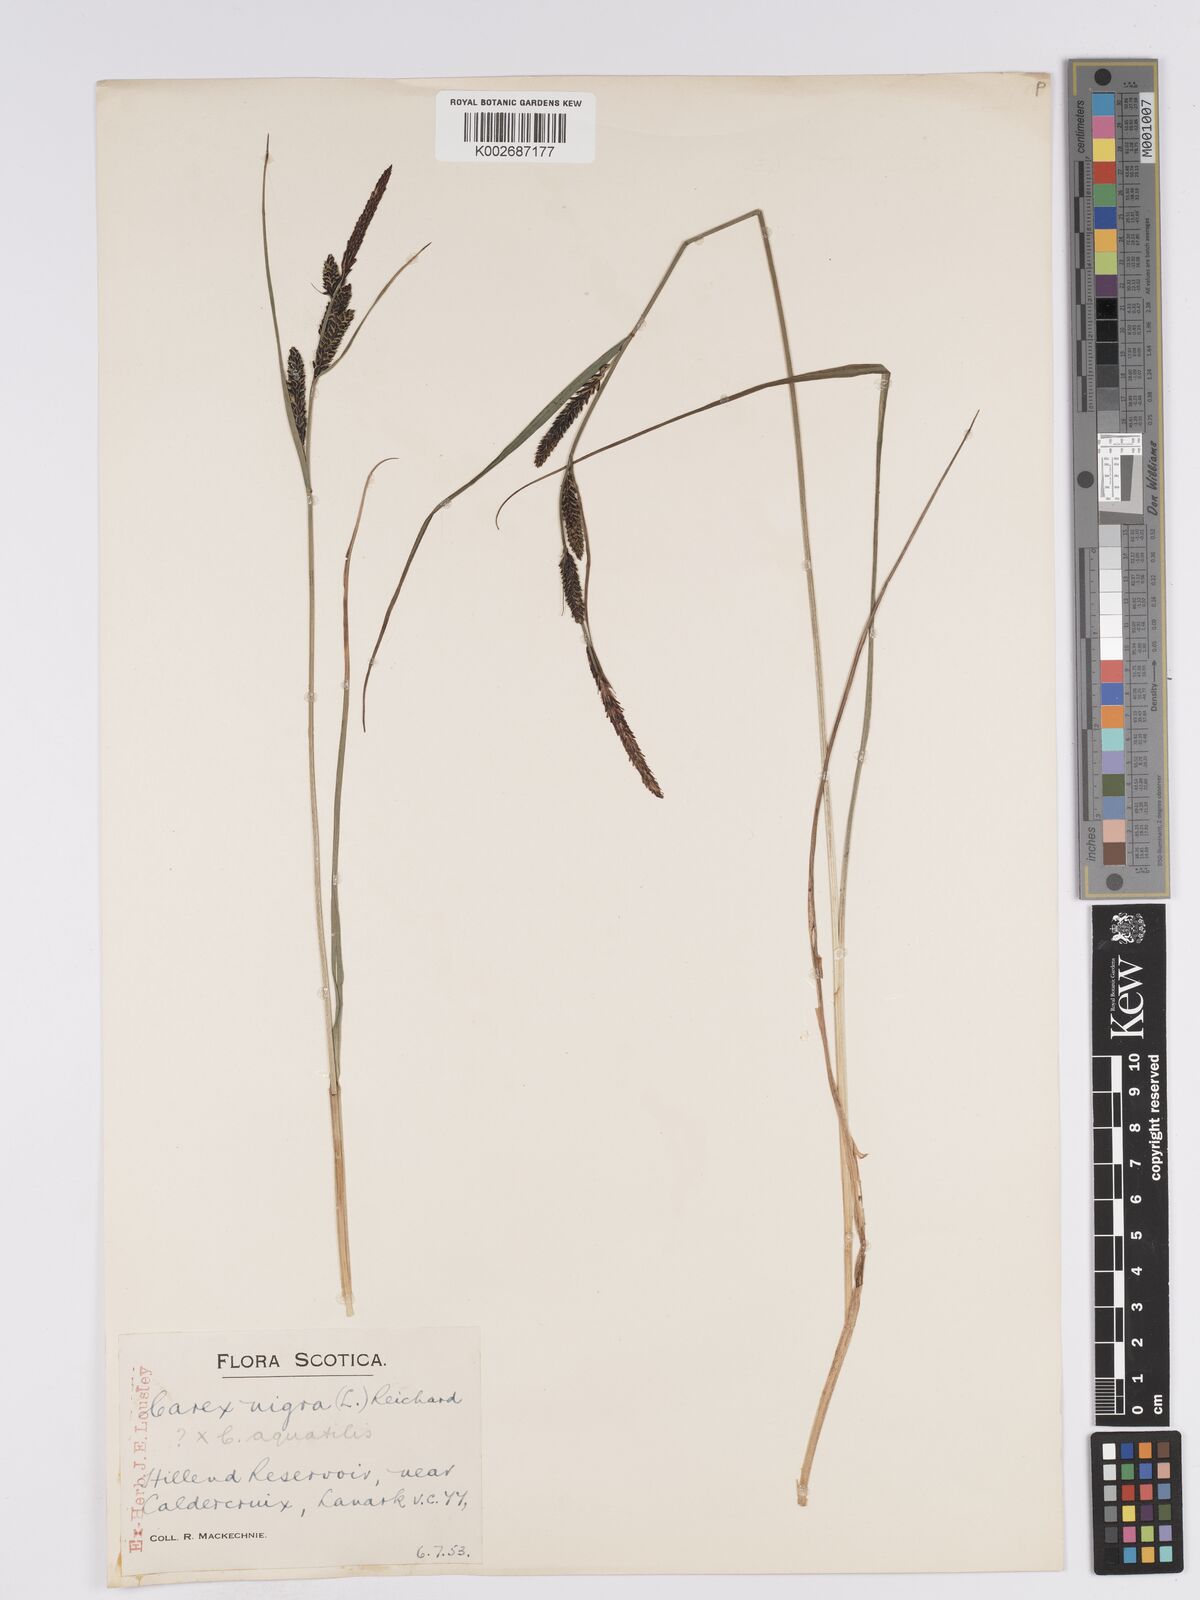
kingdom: Plantae
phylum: Tracheophyta
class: Liliopsida
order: Poales
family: Cyperaceae
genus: Carex
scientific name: Carex nigra
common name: Common sedge
